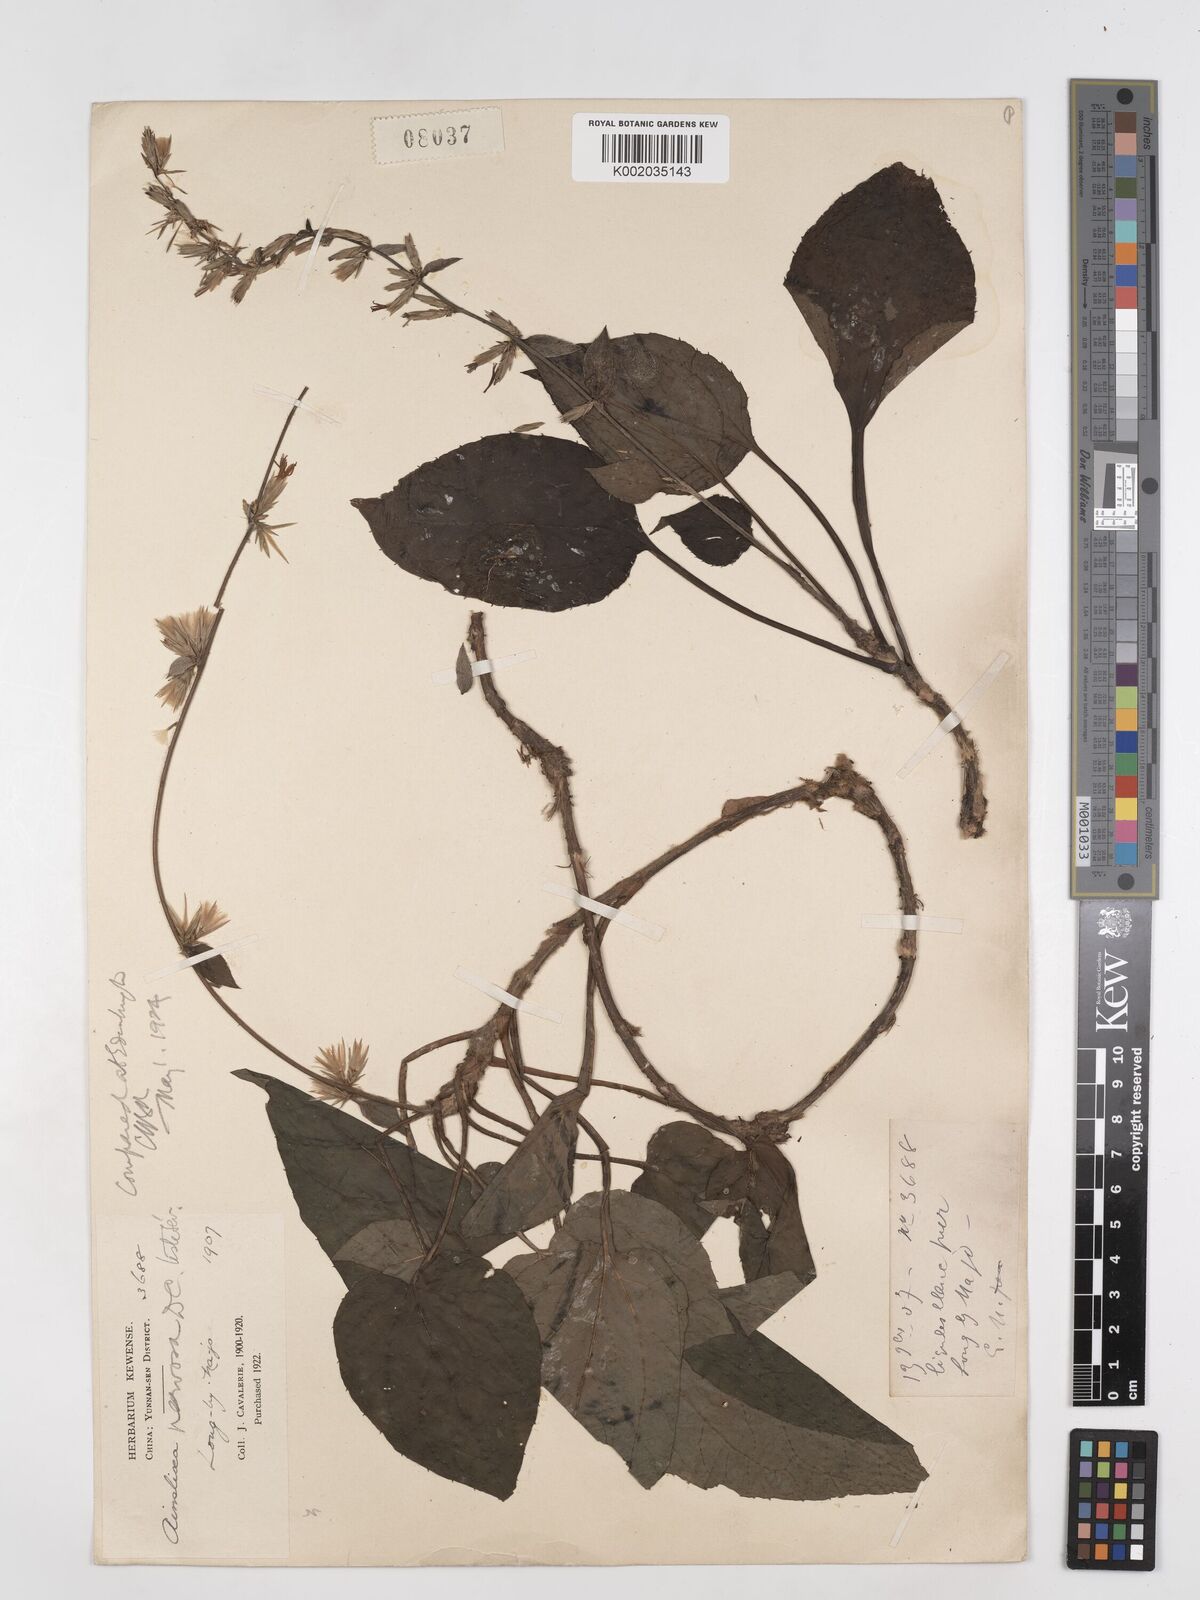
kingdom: Plantae
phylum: Tracheophyta
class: Magnoliopsida
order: Asterales
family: Asteraceae
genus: Ainsliaea
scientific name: Ainsliaea nervosa
